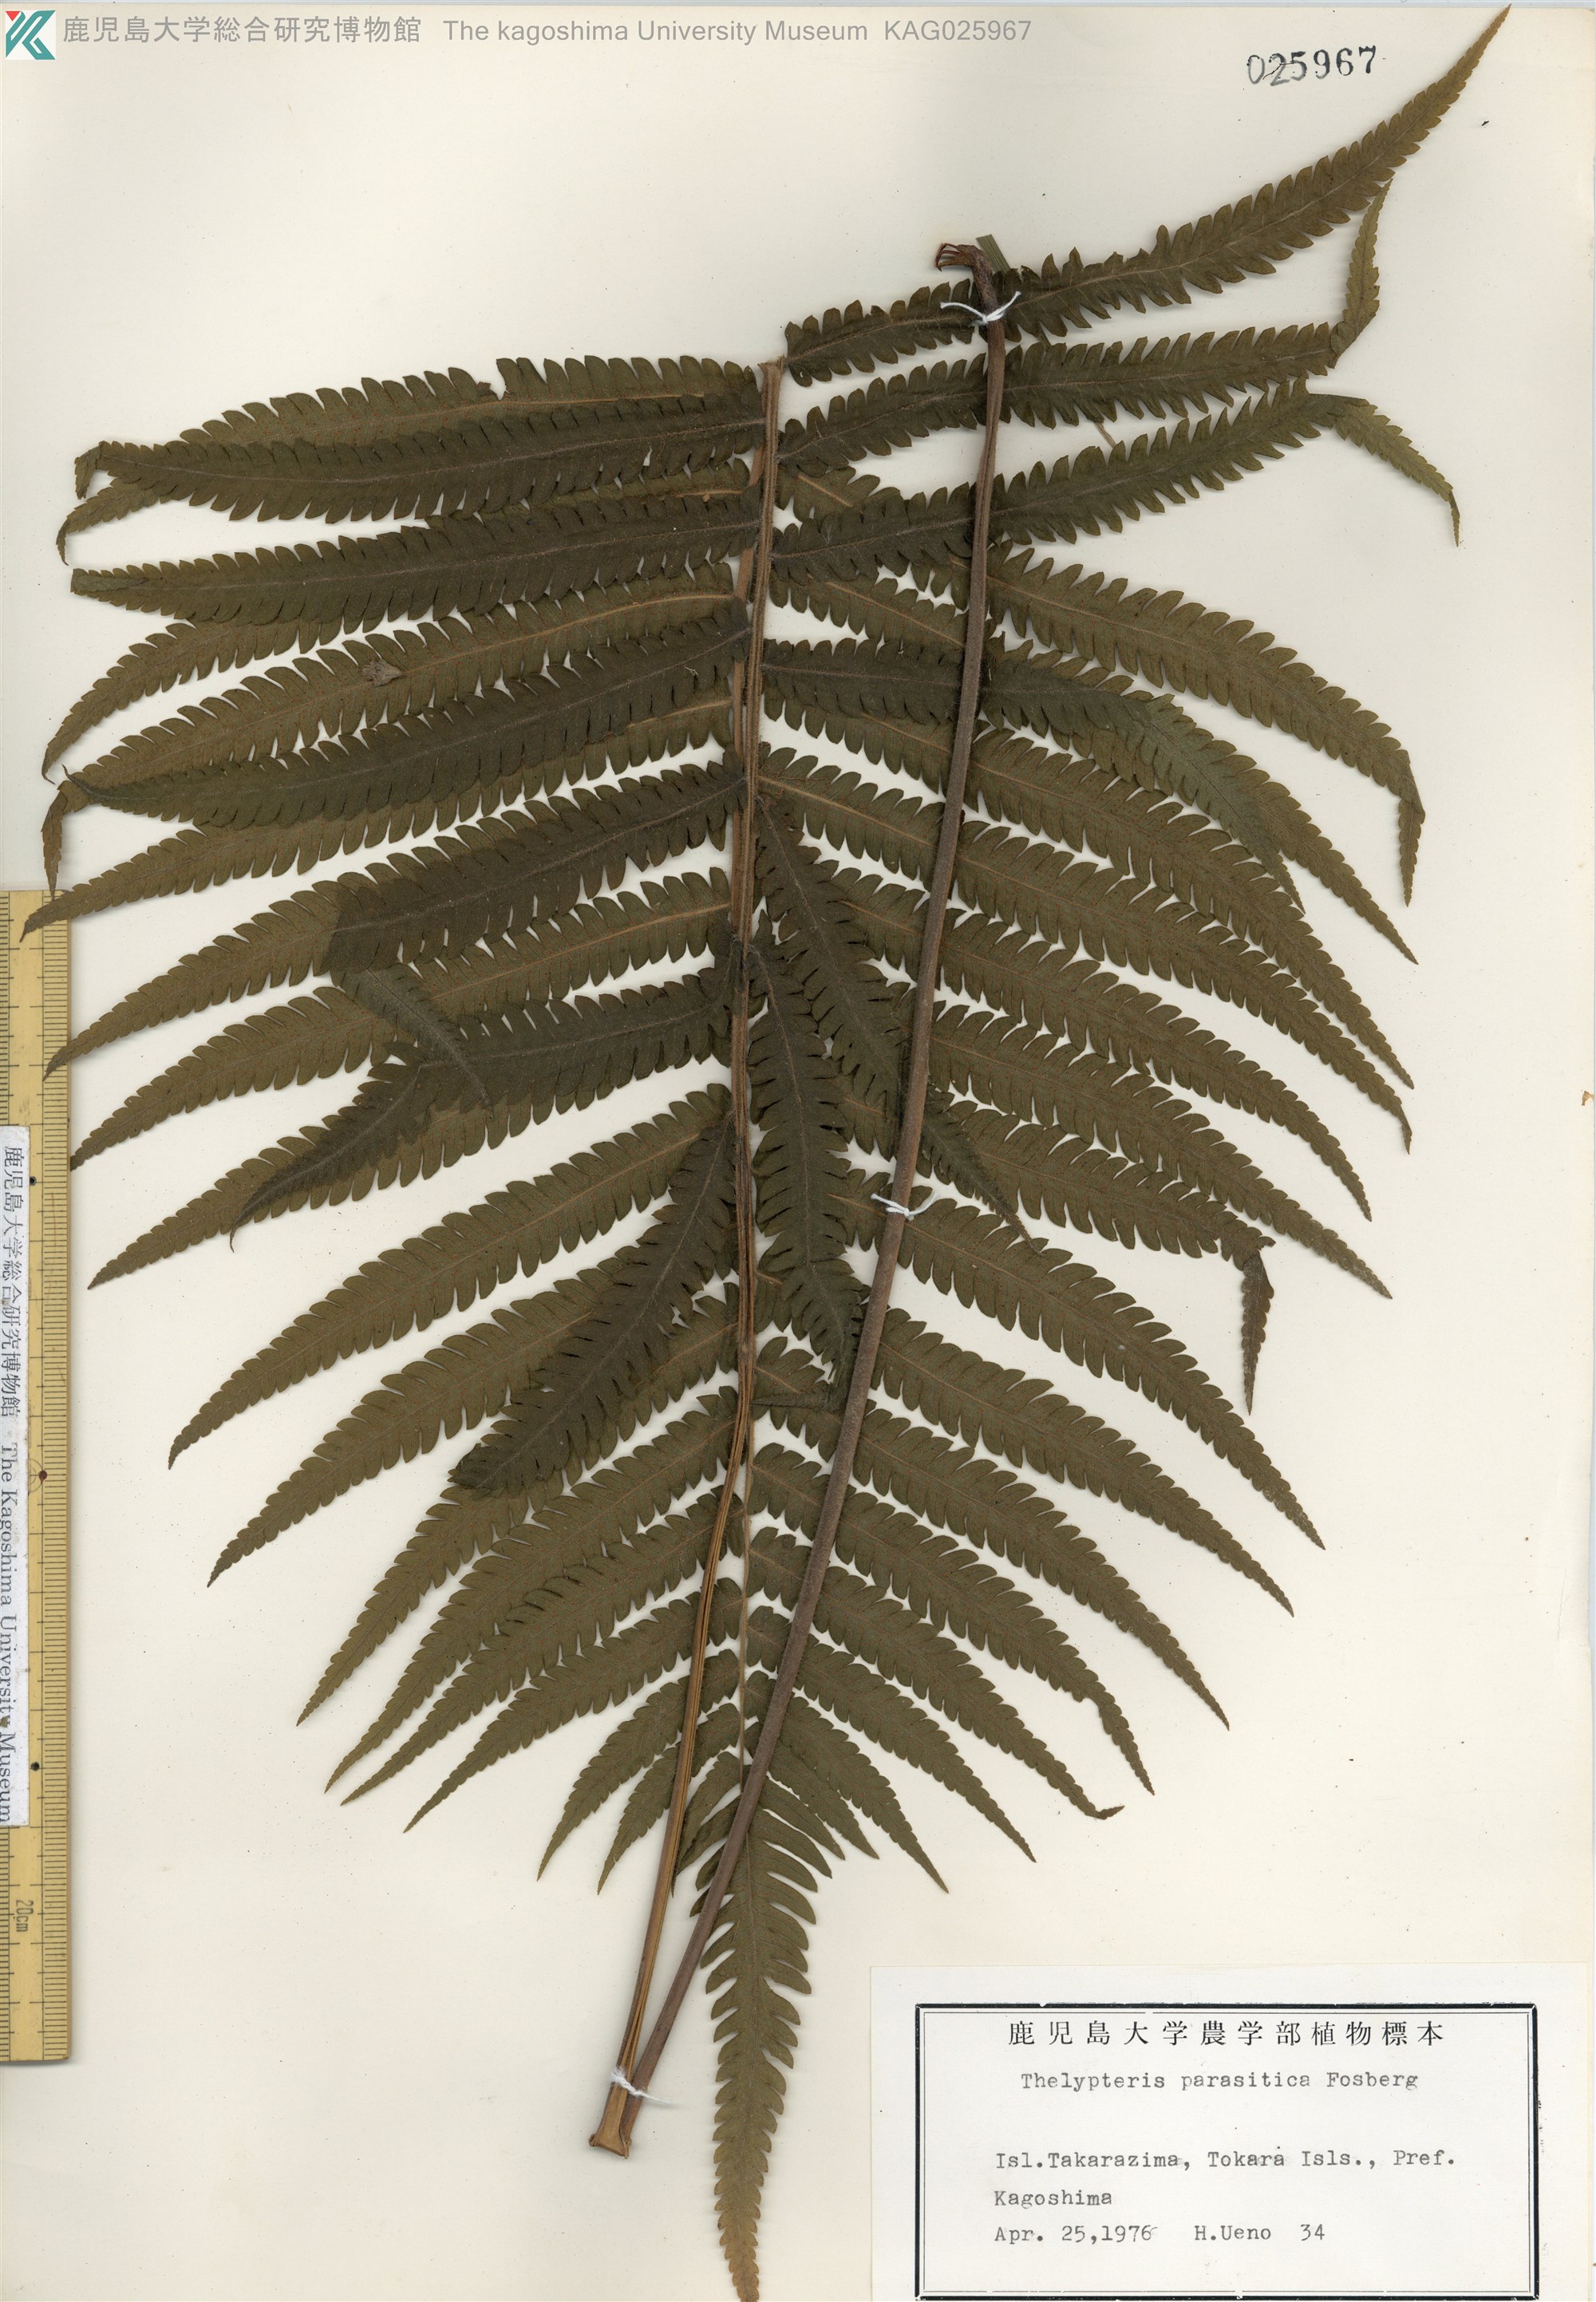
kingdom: Plantae
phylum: Tracheophyta
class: Polypodiopsida
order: Polypodiales
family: Thelypteridaceae
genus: Christella
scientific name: Christella parasitica
